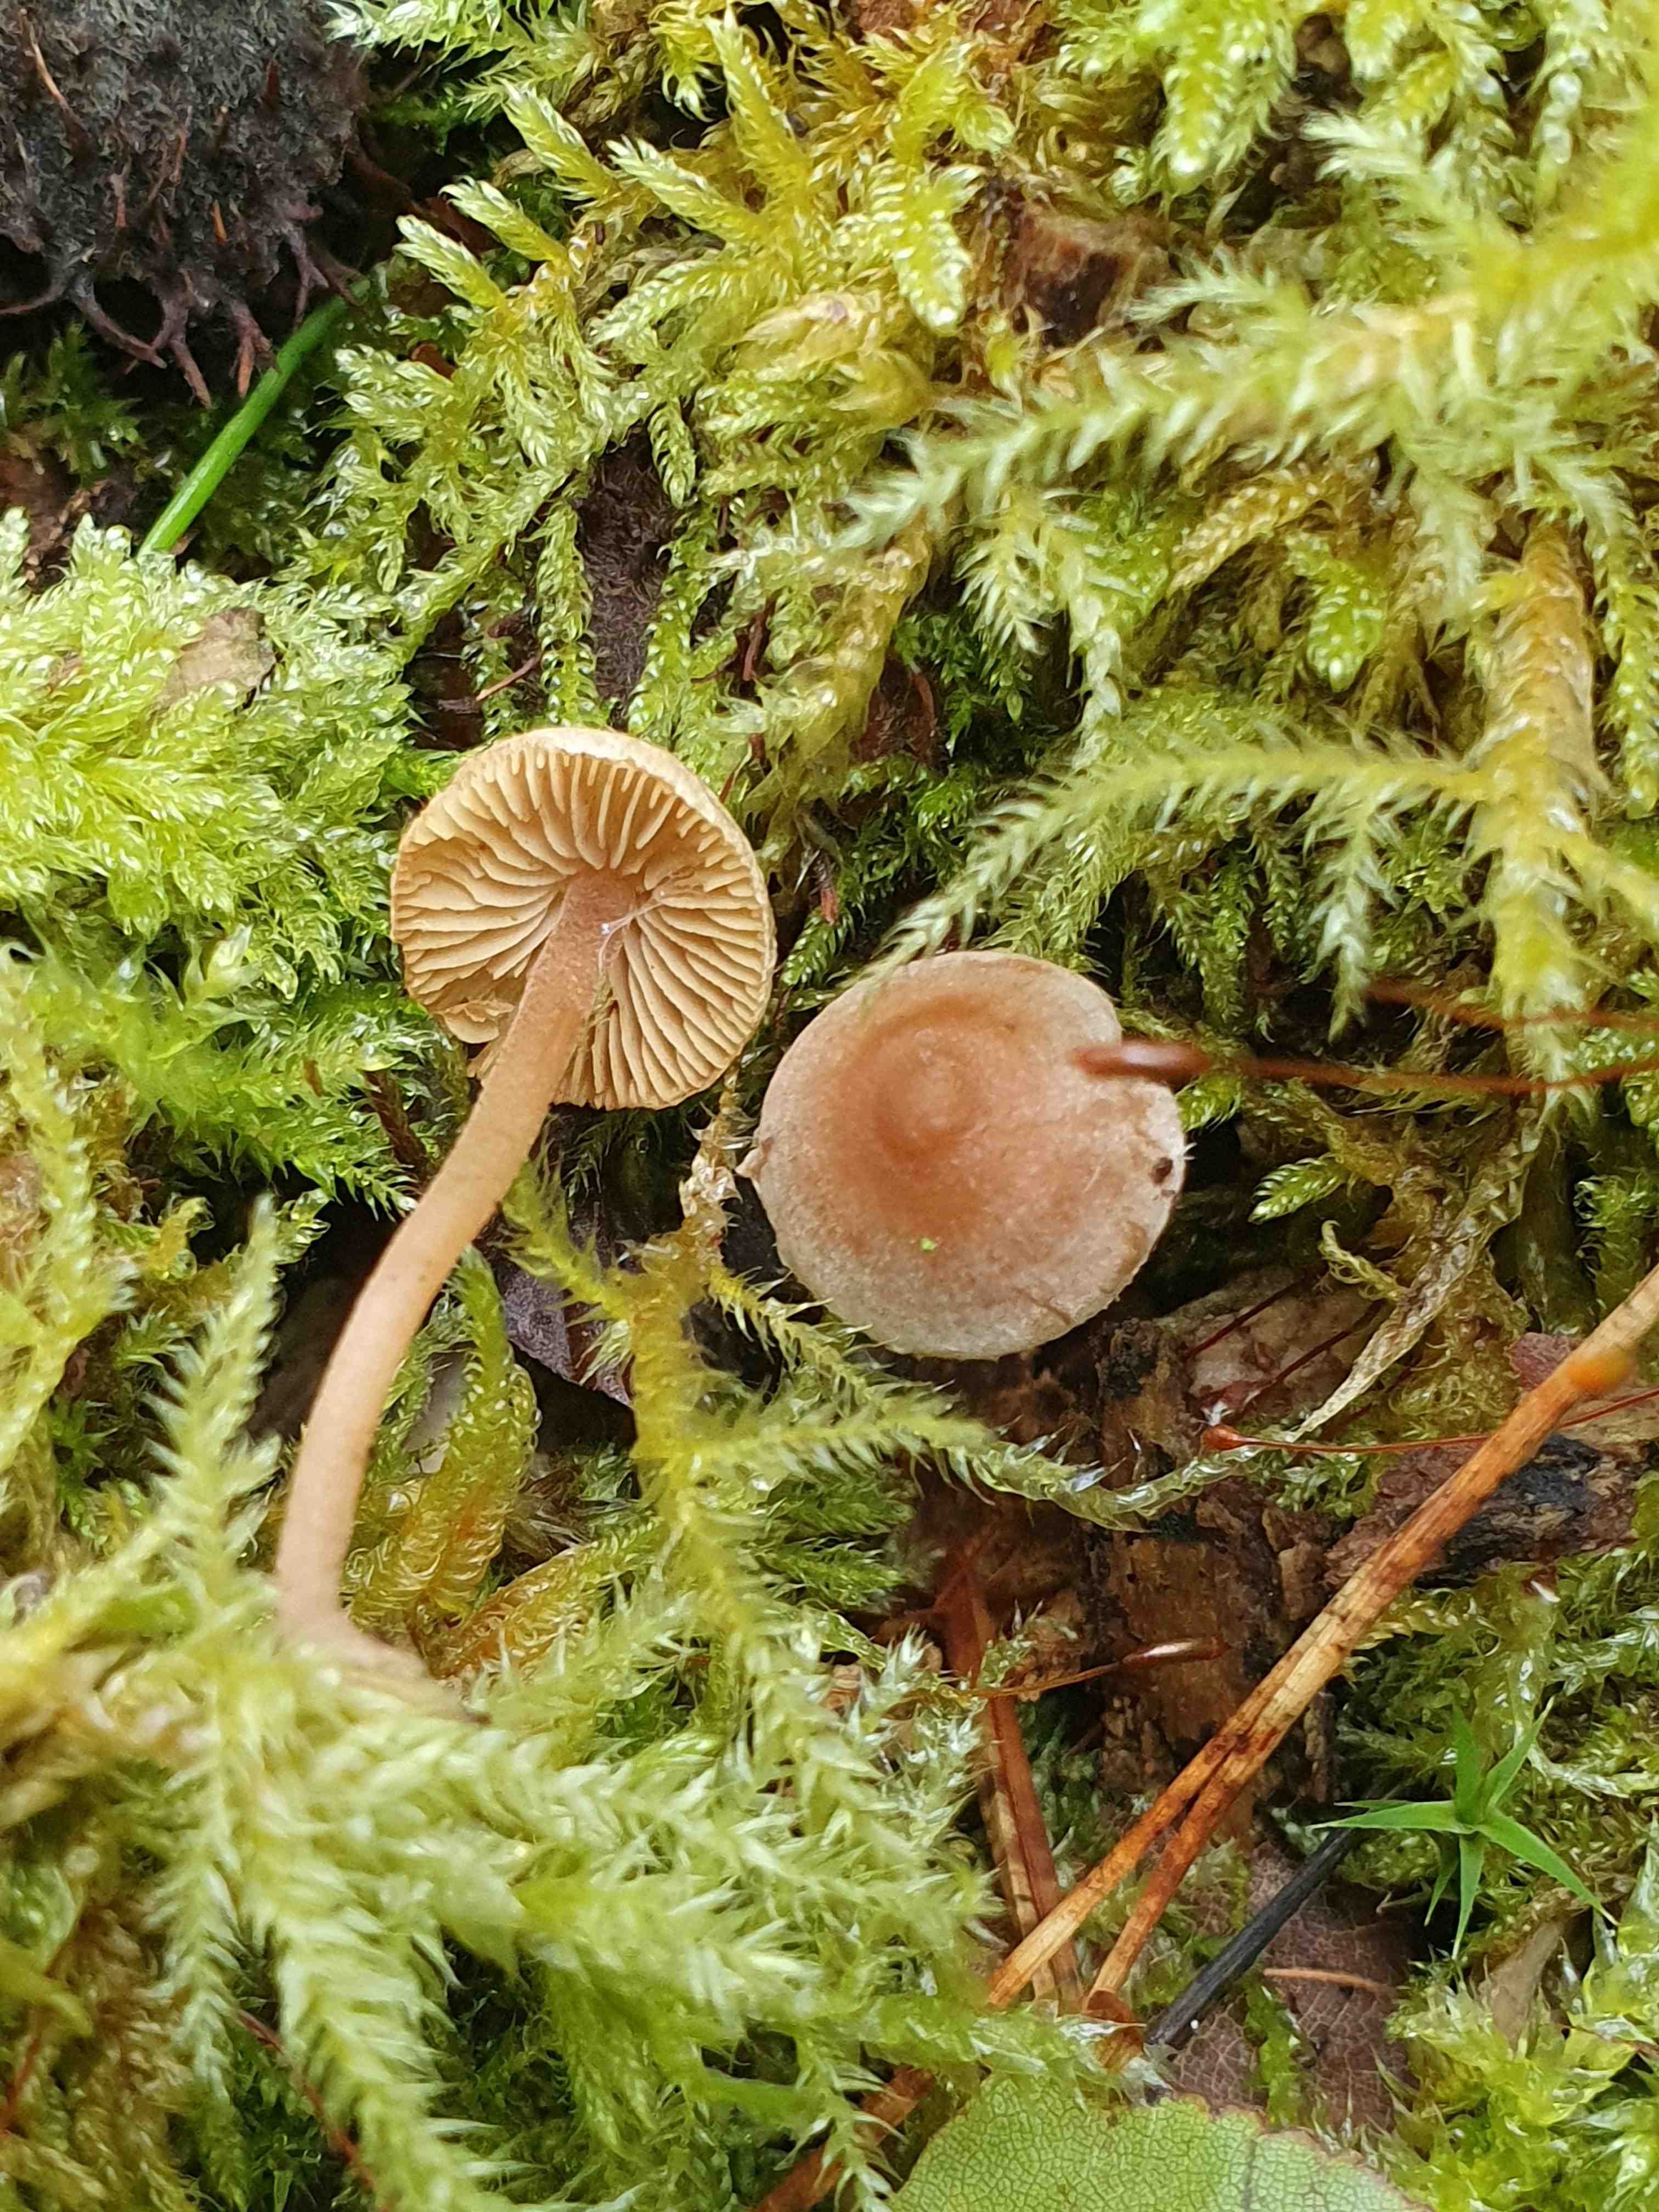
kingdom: Fungi
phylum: Basidiomycota
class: Agaricomycetes
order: Agaricales
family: Inocybaceae
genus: Inocybe
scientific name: Inocybe petiginosa
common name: liden trævlhat
